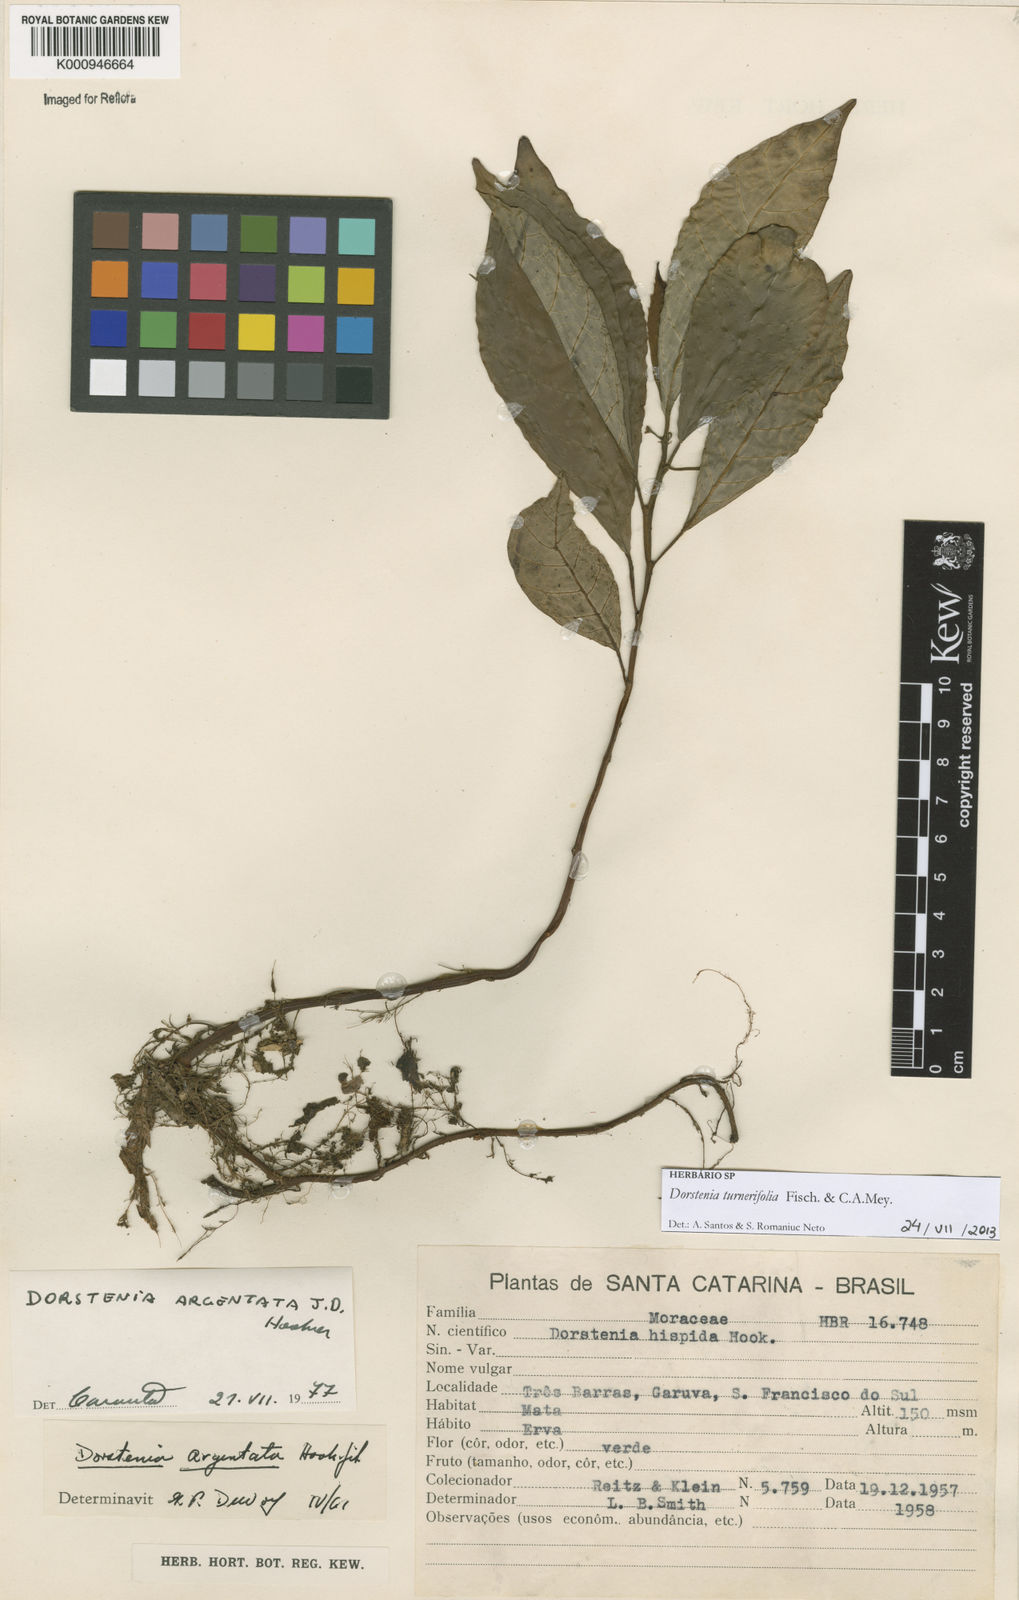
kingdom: Plantae
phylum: Tracheophyta
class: Magnoliopsida
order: Rosales
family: Moraceae
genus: Dorstenia
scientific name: Dorstenia turnerifolia
